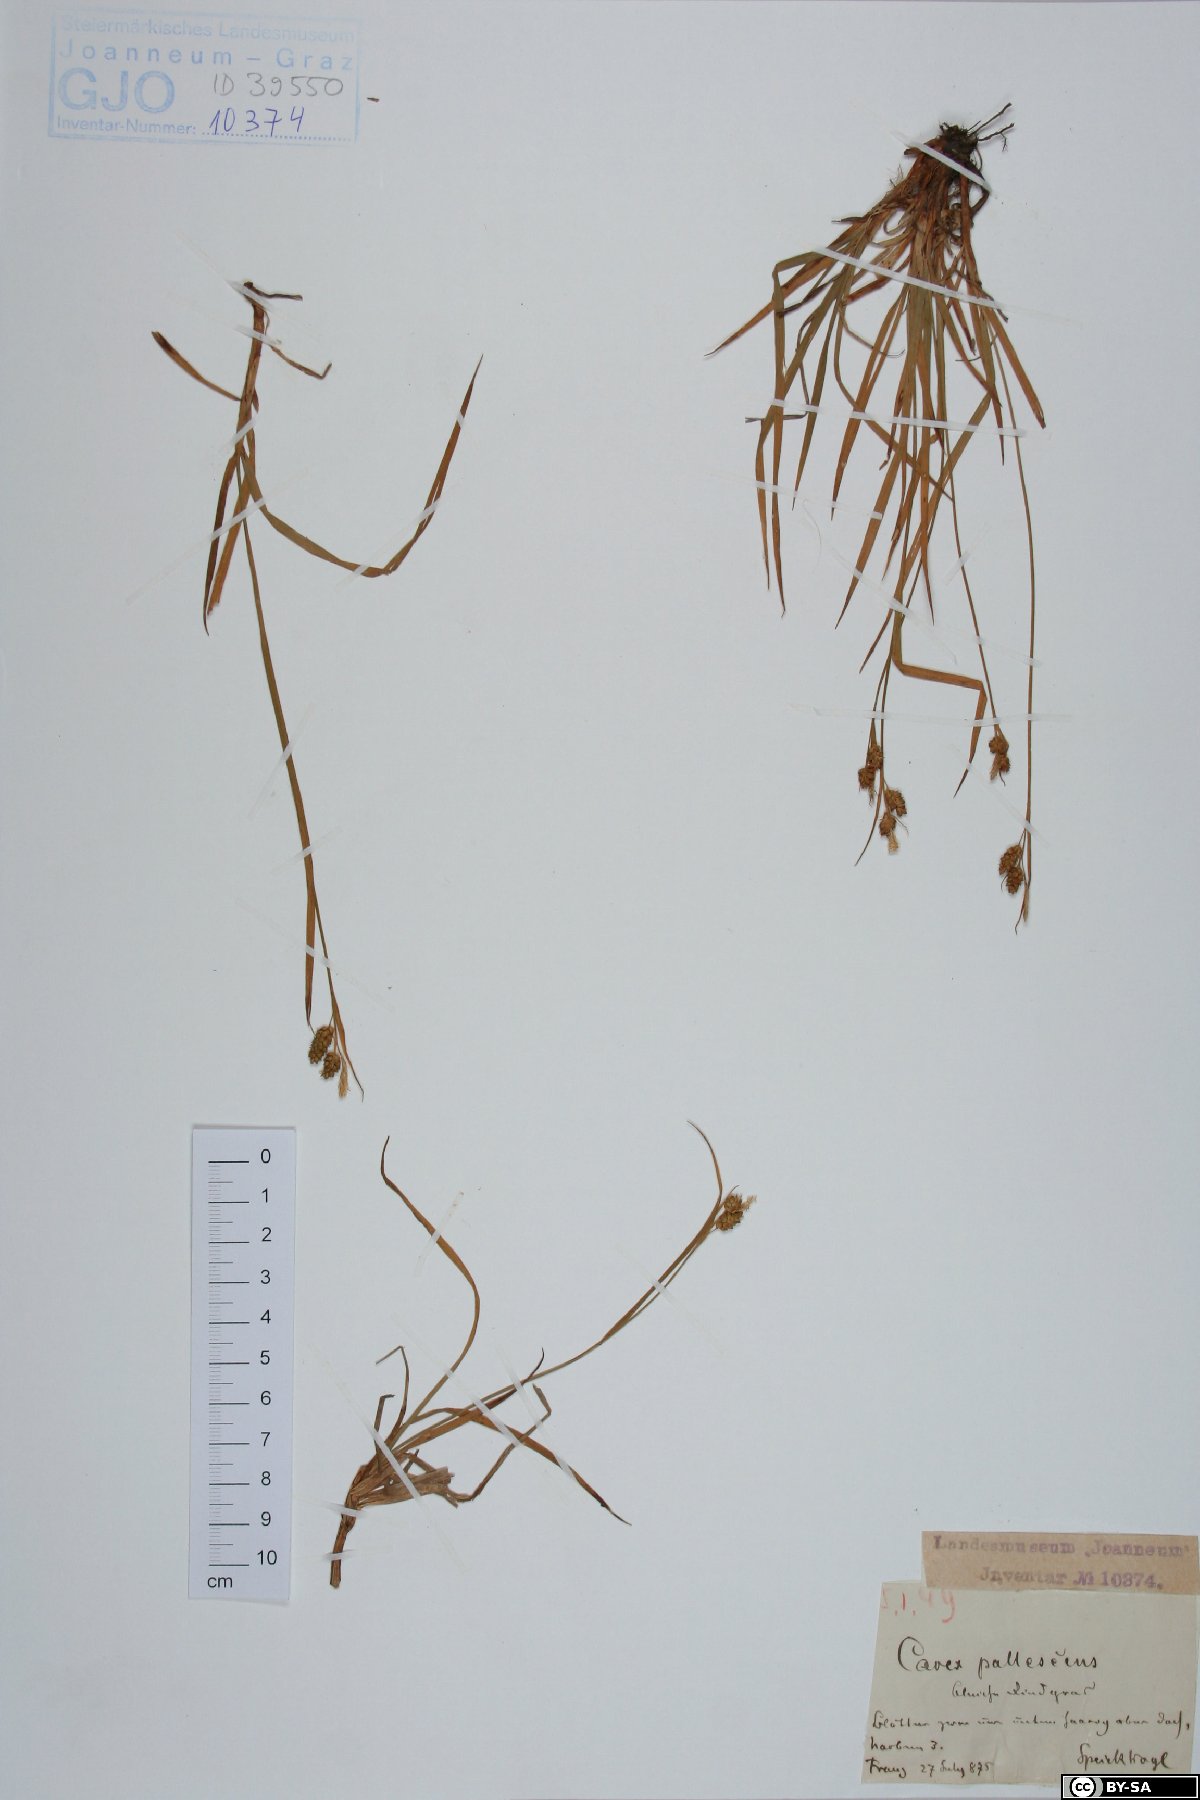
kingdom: Plantae
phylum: Tracheophyta
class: Liliopsida
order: Poales
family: Cyperaceae
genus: Carex
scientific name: Carex pallescens
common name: Pale sedge
